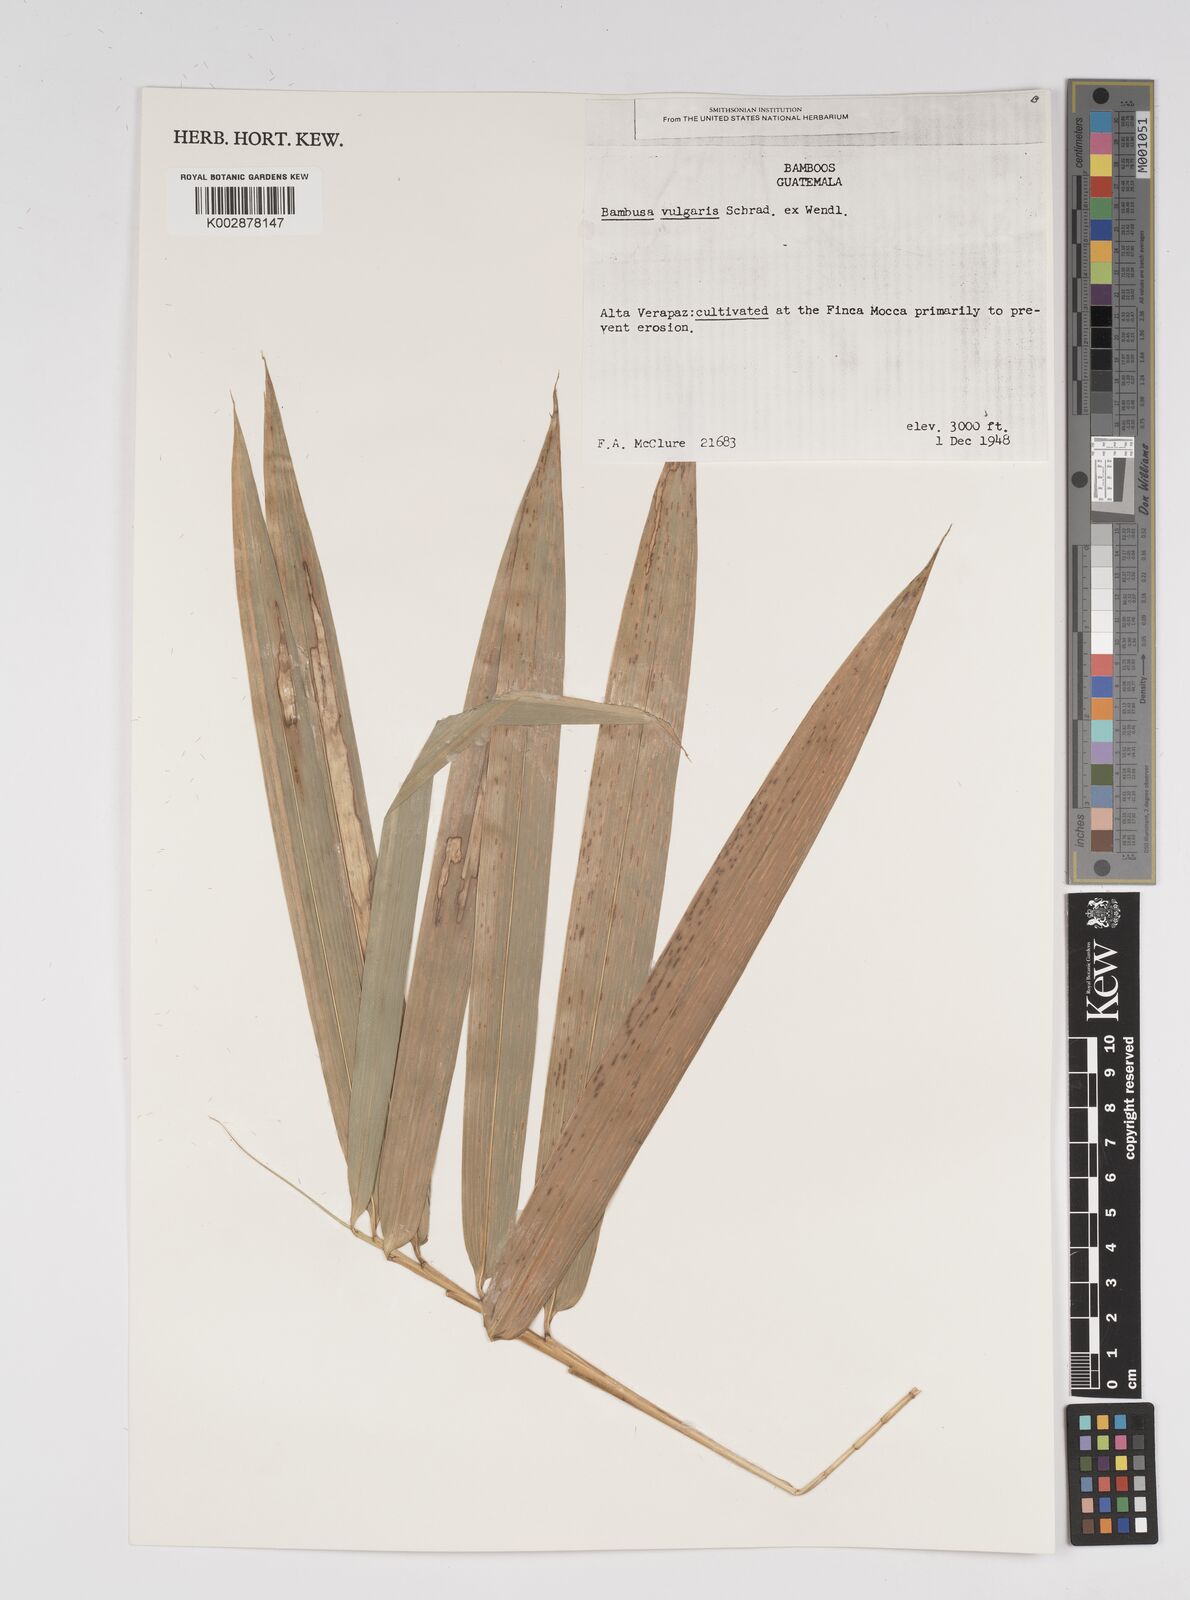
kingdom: Plantae
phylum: Tracheophyta
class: Liliopsida
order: Poales
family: Poaceae
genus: Bambusa
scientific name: Bambusa
